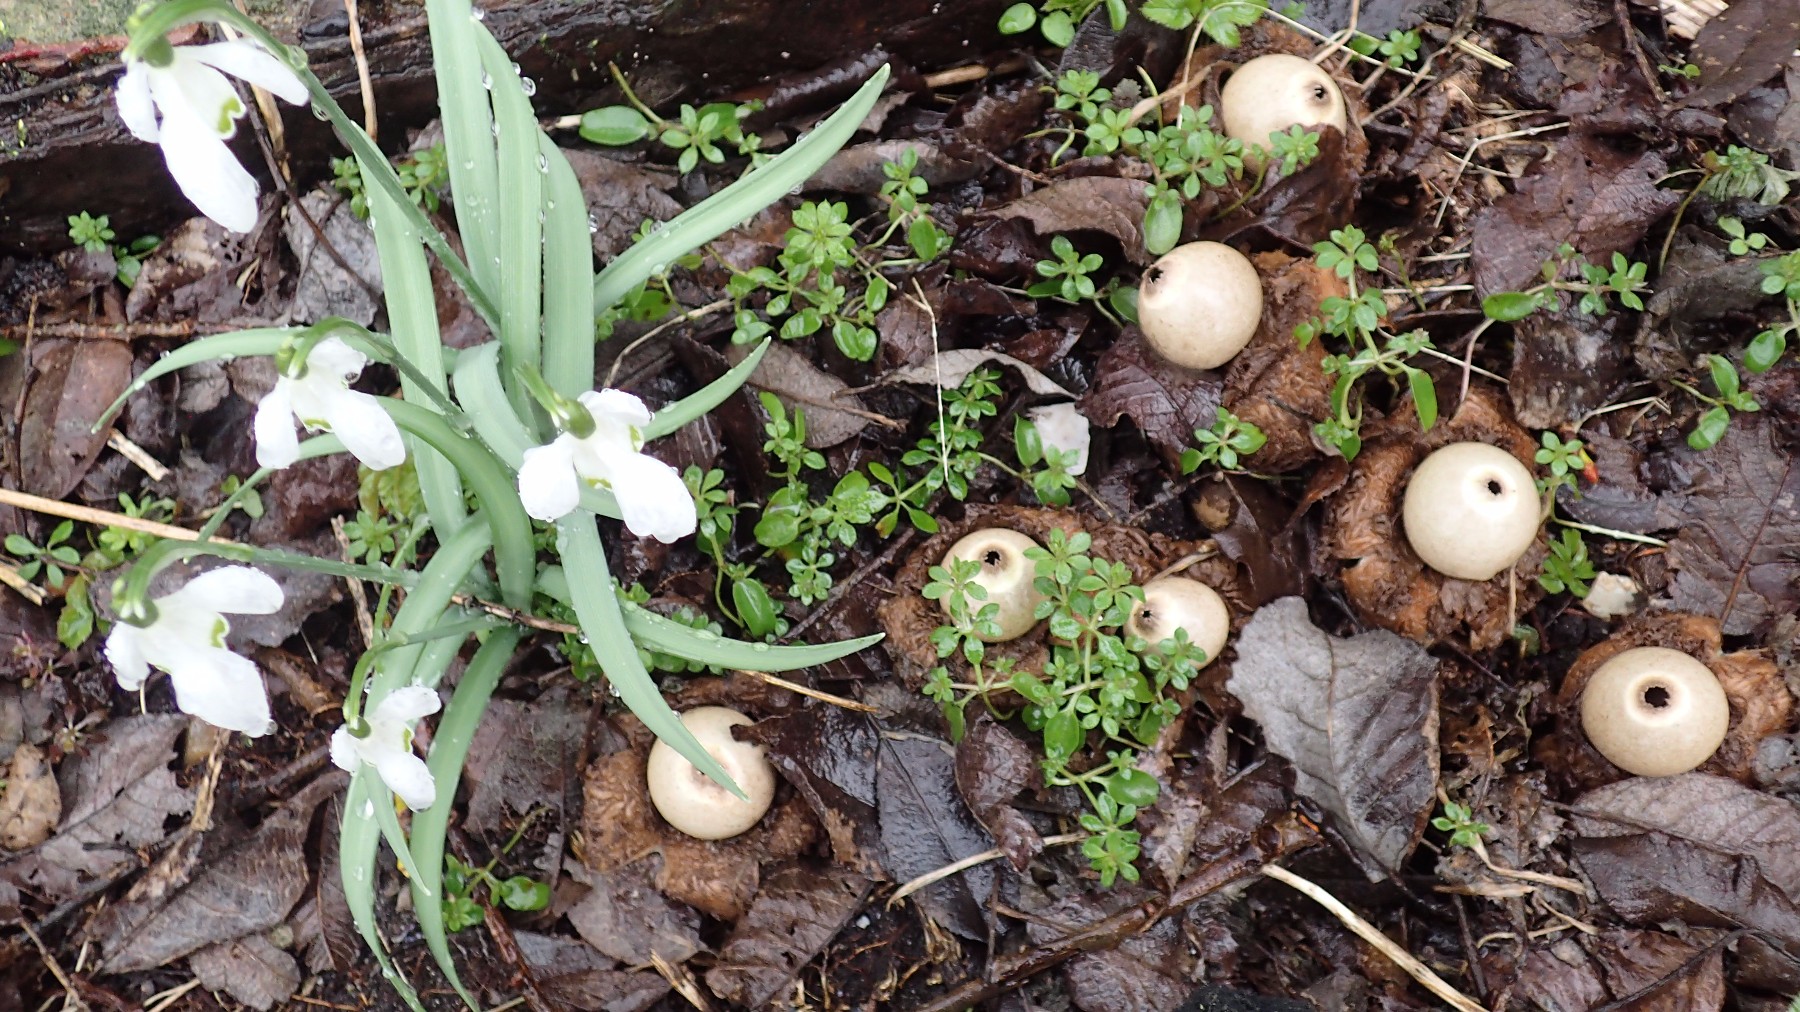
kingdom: Fungi
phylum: Basidiomycota
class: Agaricomycetes
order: Geastrales
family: Geastraceae
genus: Geastrum
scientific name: Geastrum michelianum
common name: kødet stjernebold
